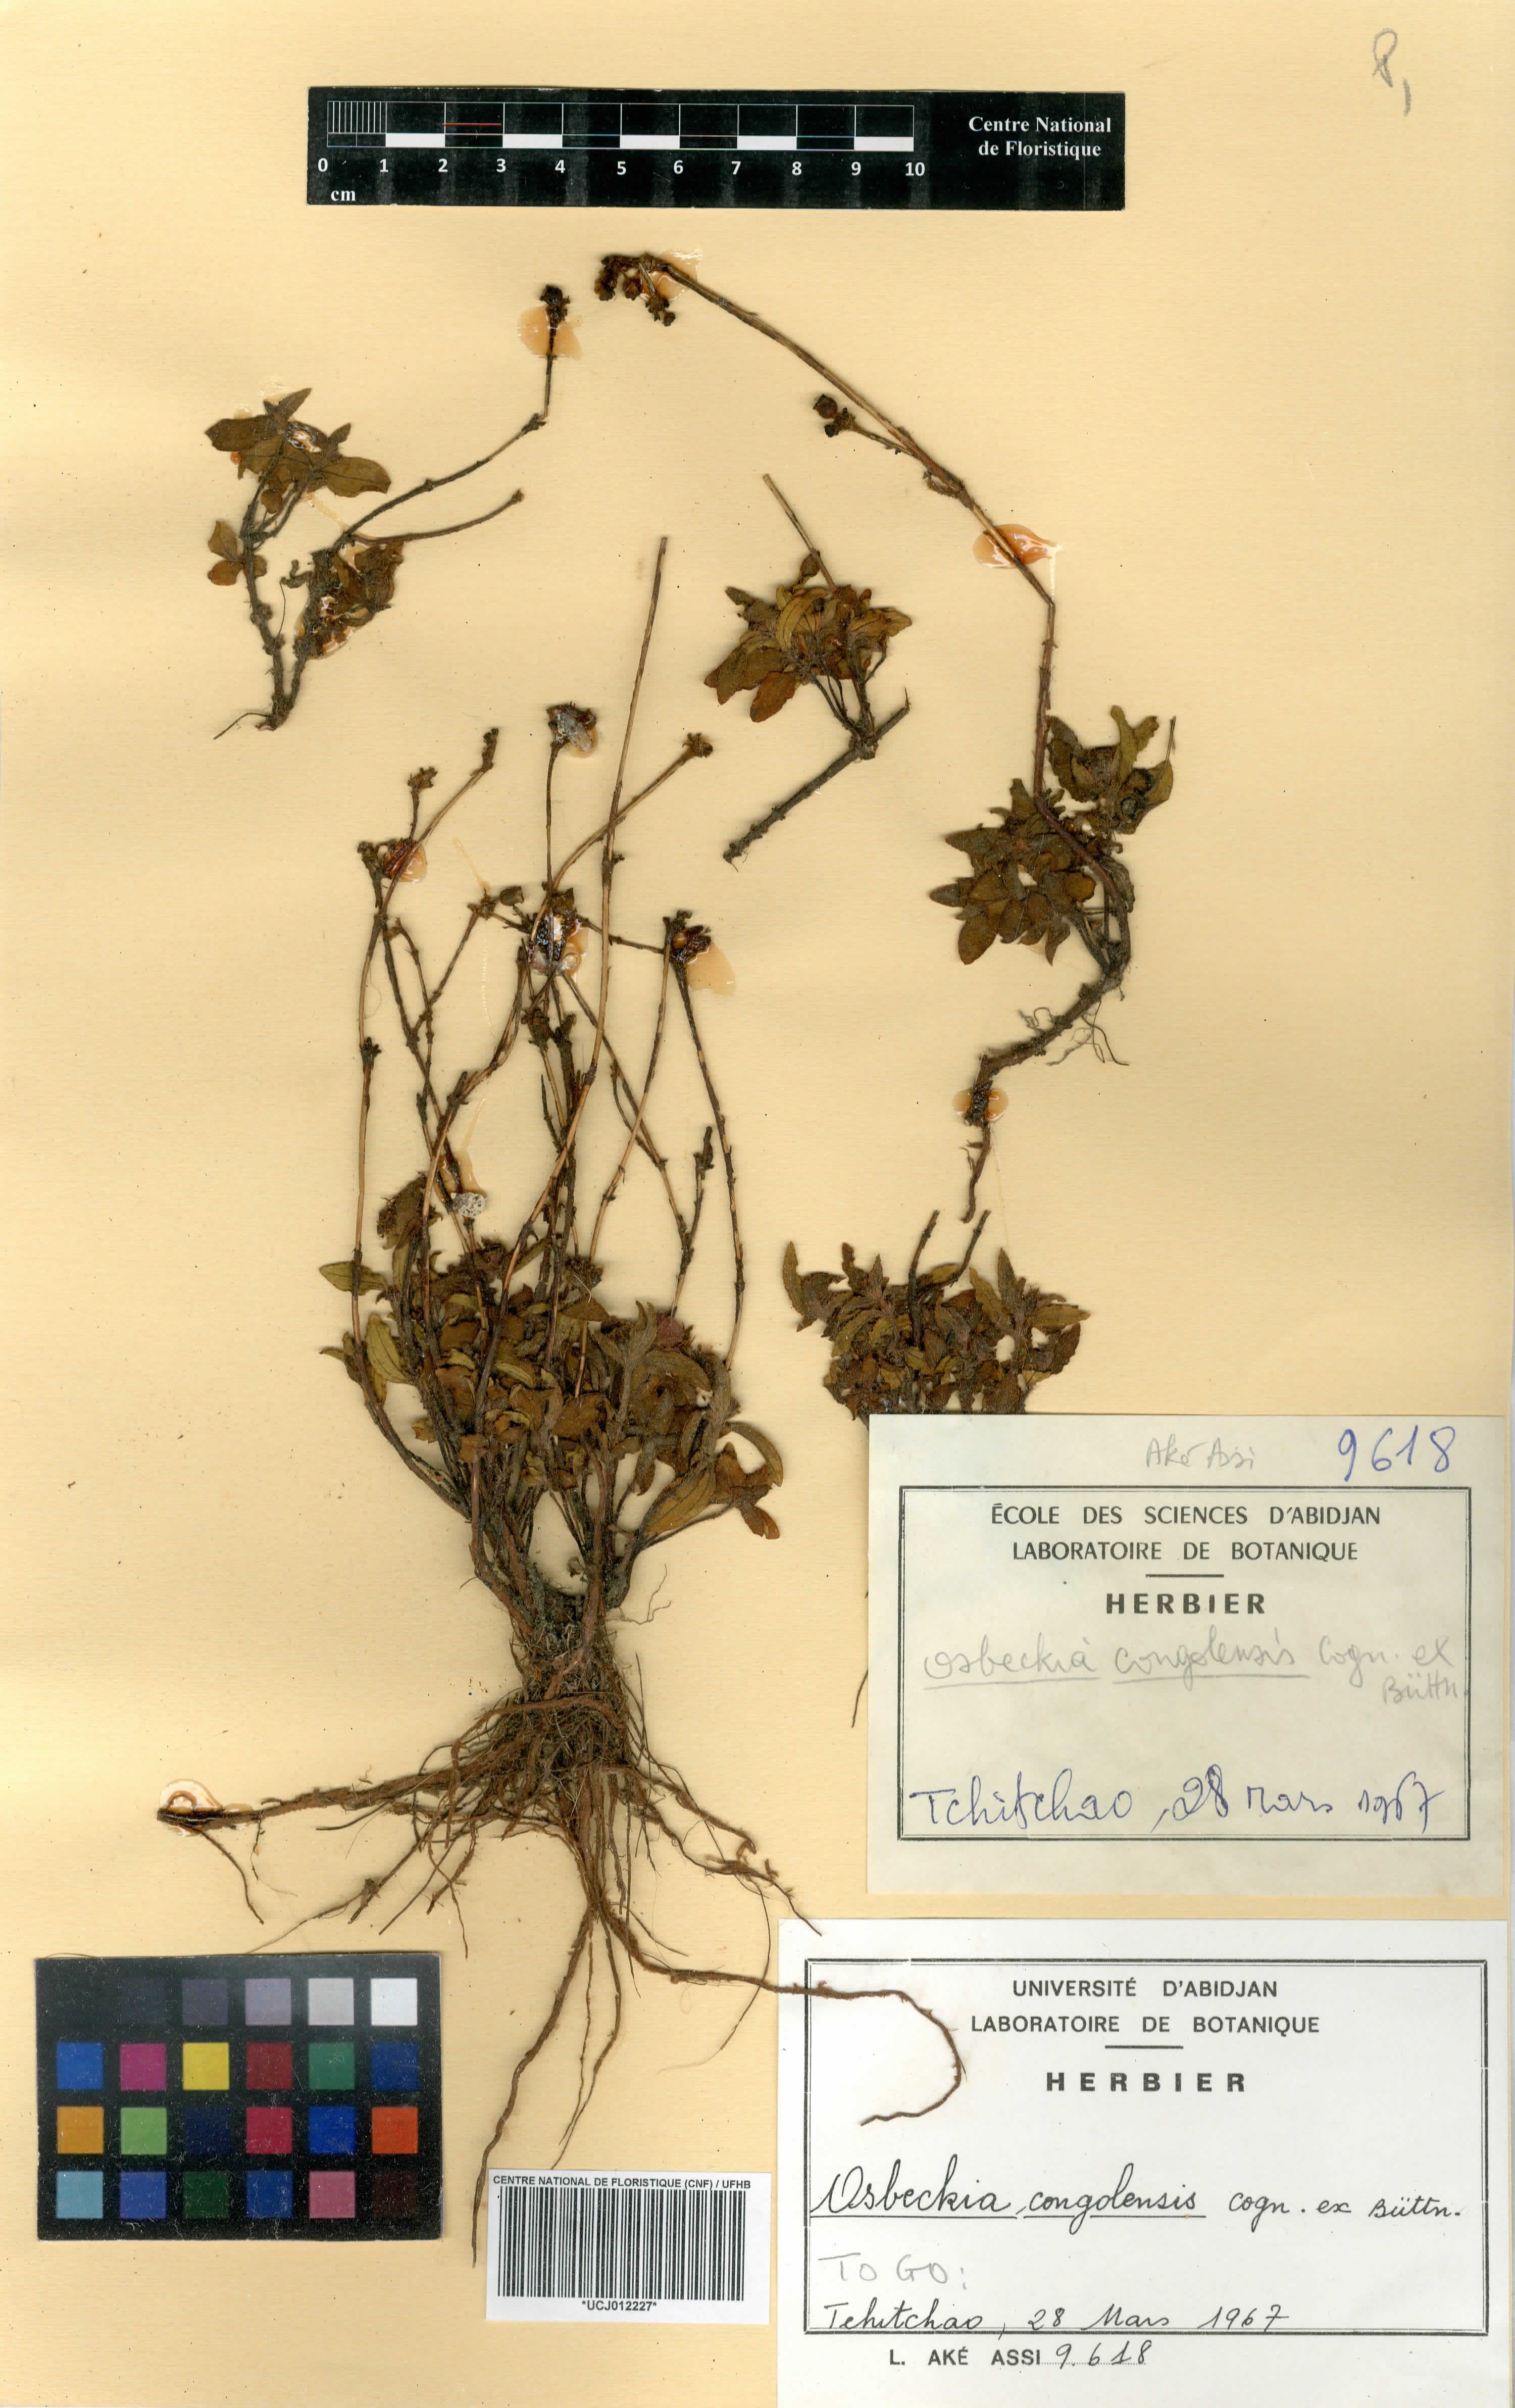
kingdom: Plantae
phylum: Tracheophyta
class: Magnoliopsida
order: Myrtales
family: Melastomataceae
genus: Nerophila
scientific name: Nerophila congolensis
